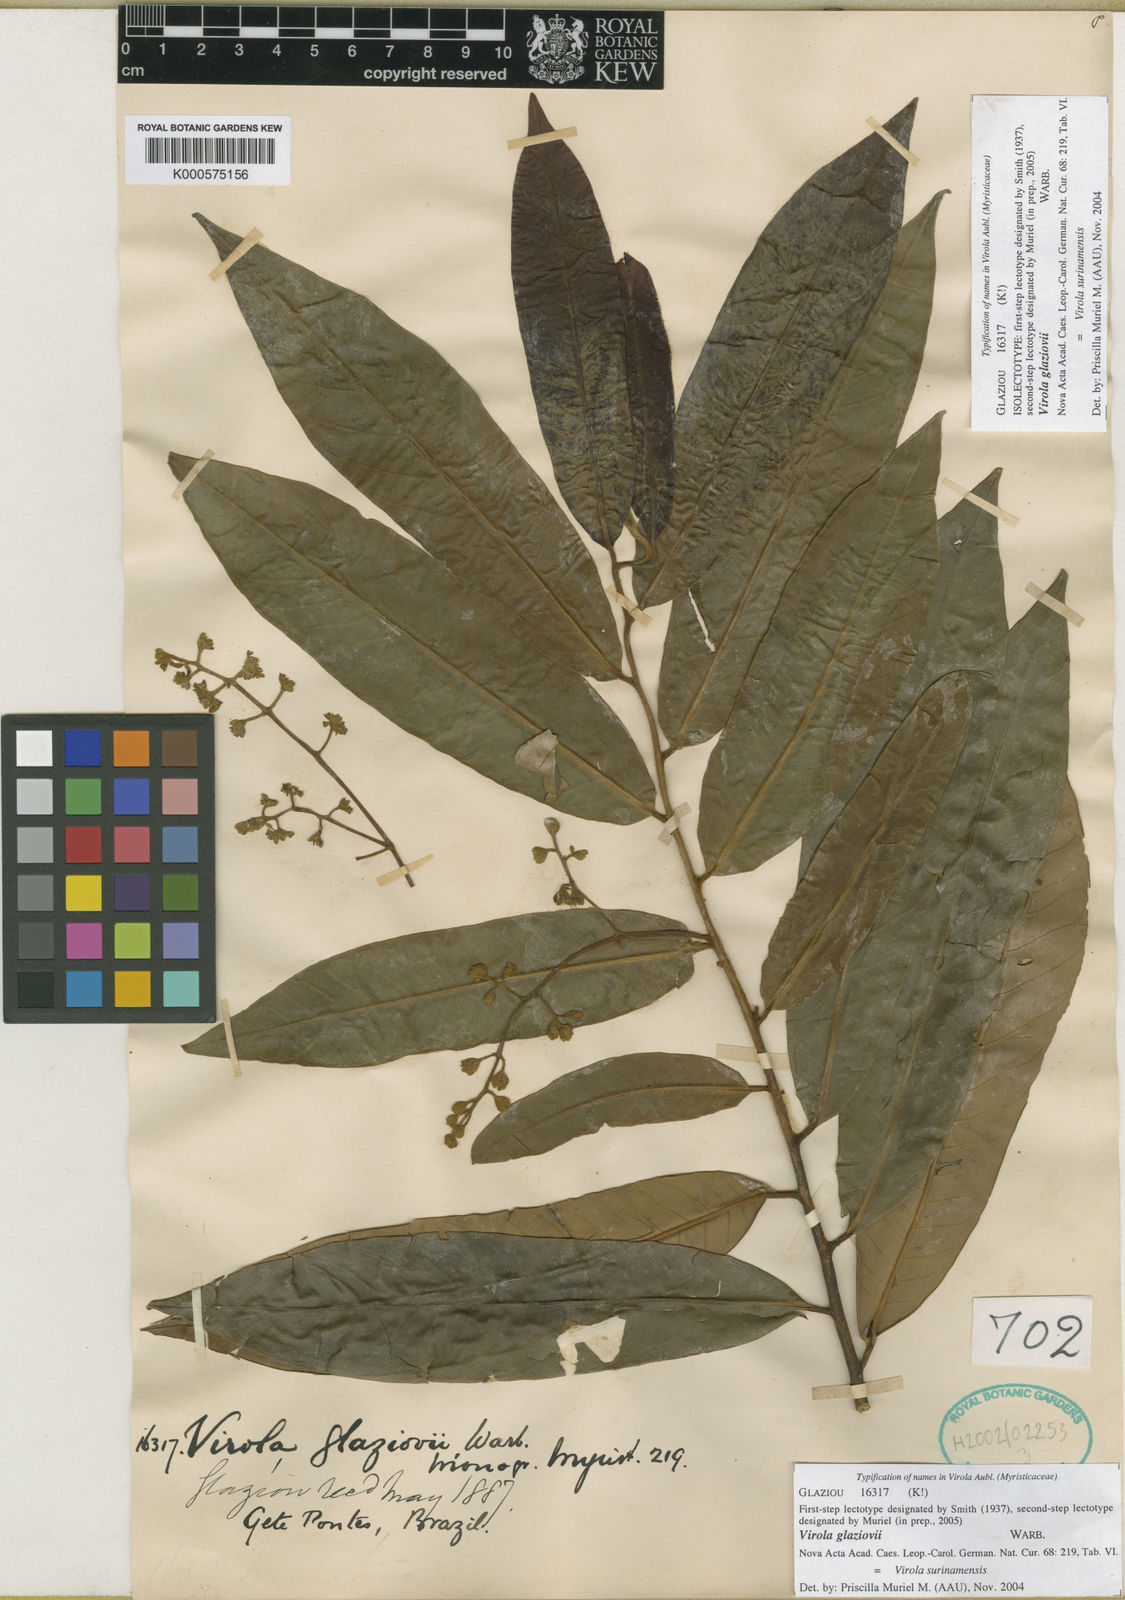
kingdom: Plantae
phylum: Tracheophyta
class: Magnoliopsida
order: Magnoliales
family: Myristicaceae
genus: Virola
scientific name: Virola surinamensis
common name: Baboonwood
